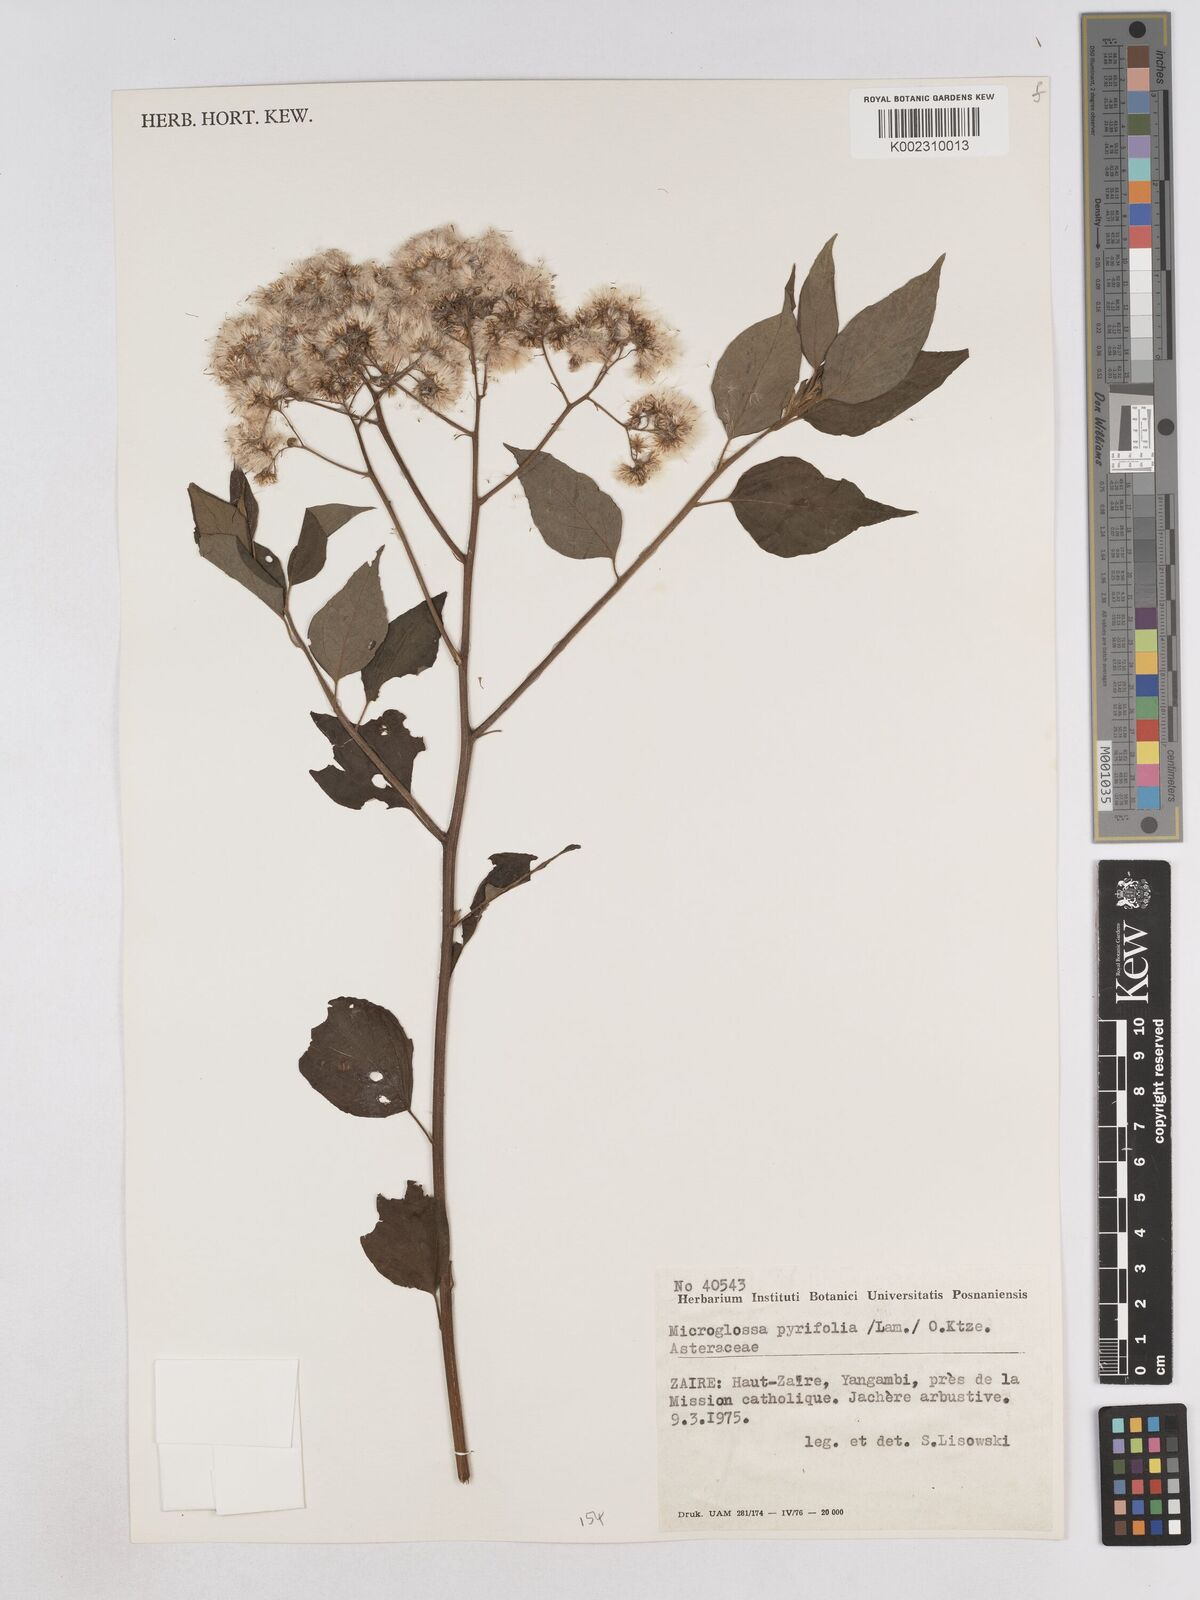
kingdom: Plantae
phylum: Tracheophyta
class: Magnoliopsida
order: Asterales
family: Asteraceae
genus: Microglossa
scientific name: Microglossa pyrifolia
